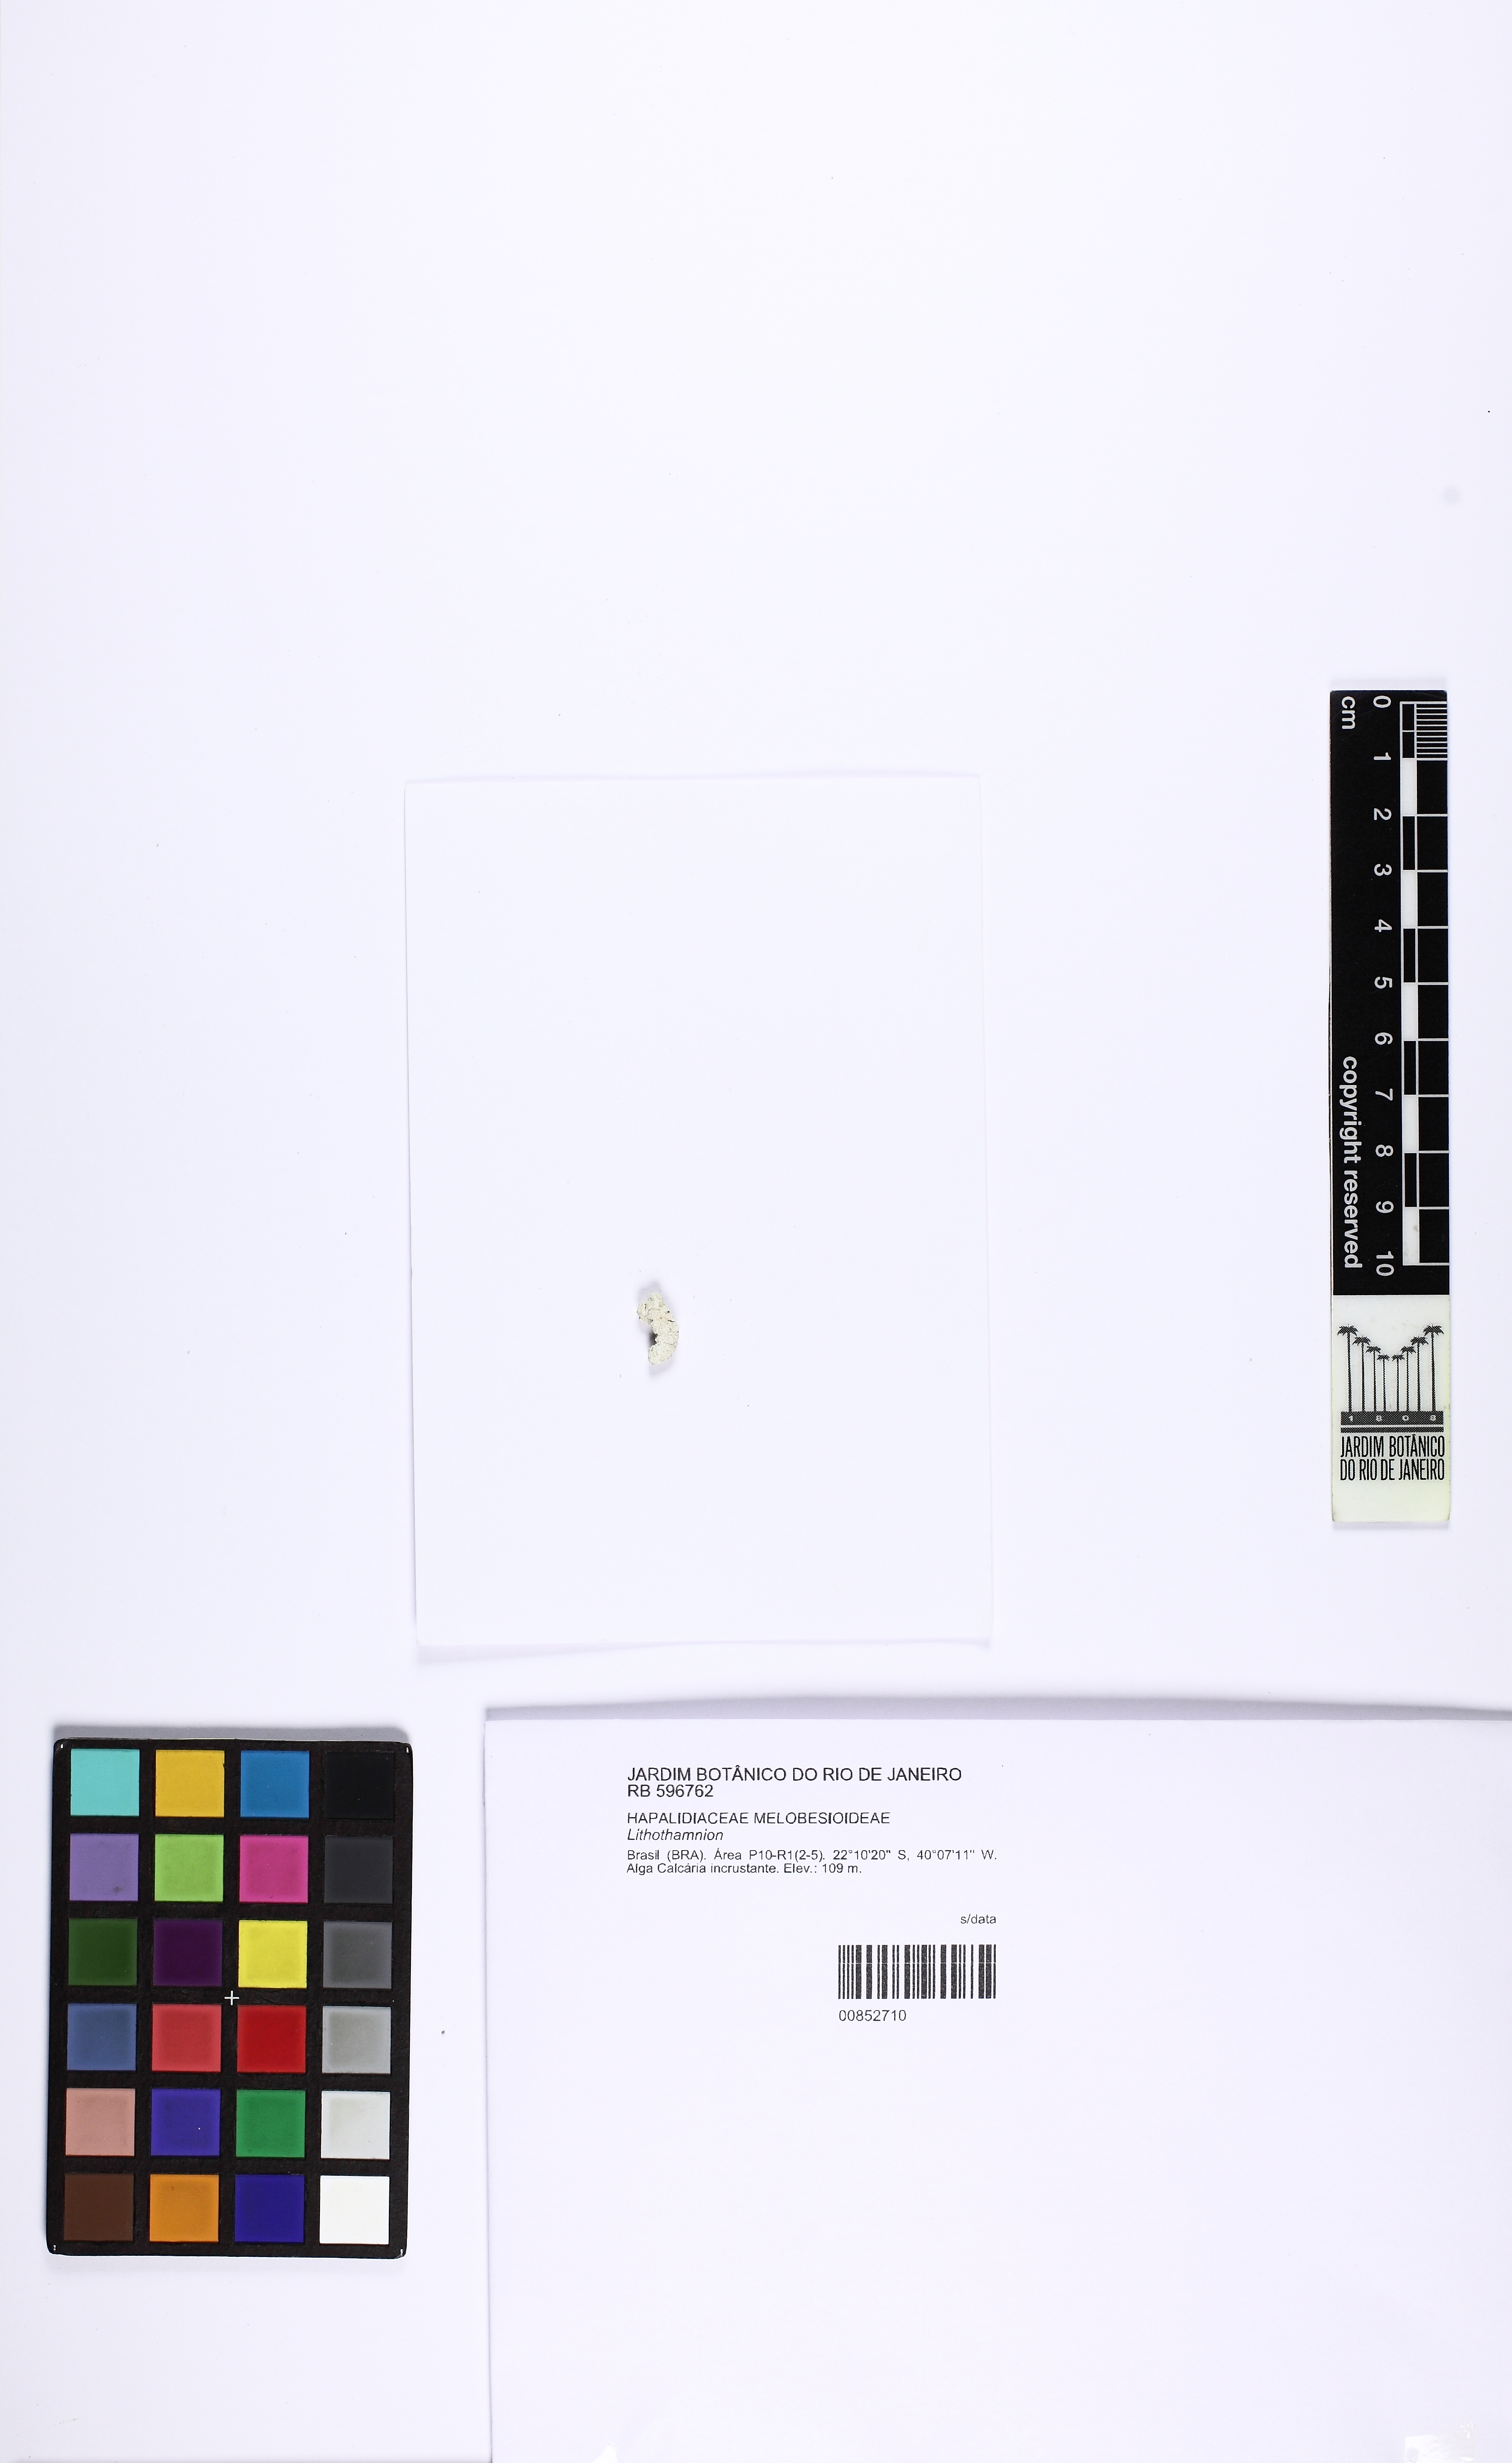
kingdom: Plantae
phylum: Rhodophyta
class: Florideophyceae
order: Corallinales
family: Hapalidiaceae
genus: Lithothamnion
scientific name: Lithothamnion
